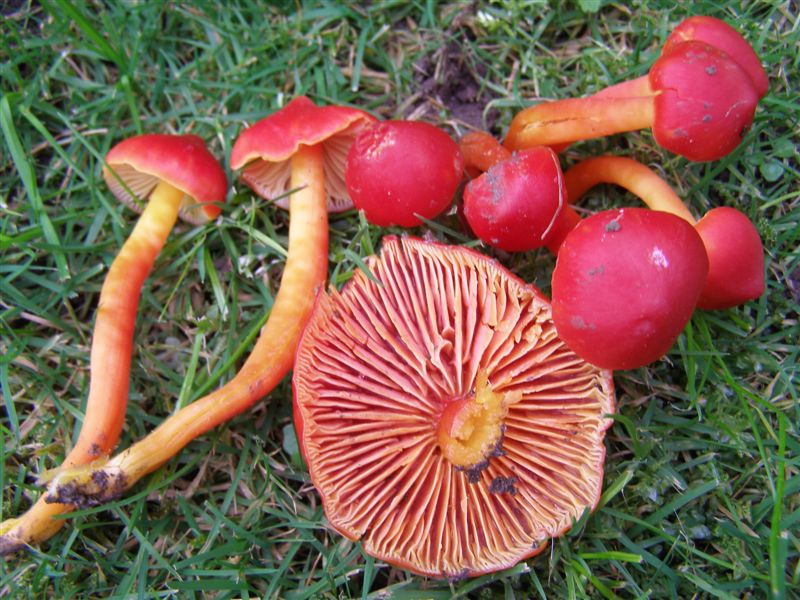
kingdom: Fungi
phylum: Basidiomycota
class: Agaricomycetes
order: Agaricales
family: Hygrophoraceae
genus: Hygrocybe
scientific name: Hygrocybe splendidissima
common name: knaldrød vokshat
